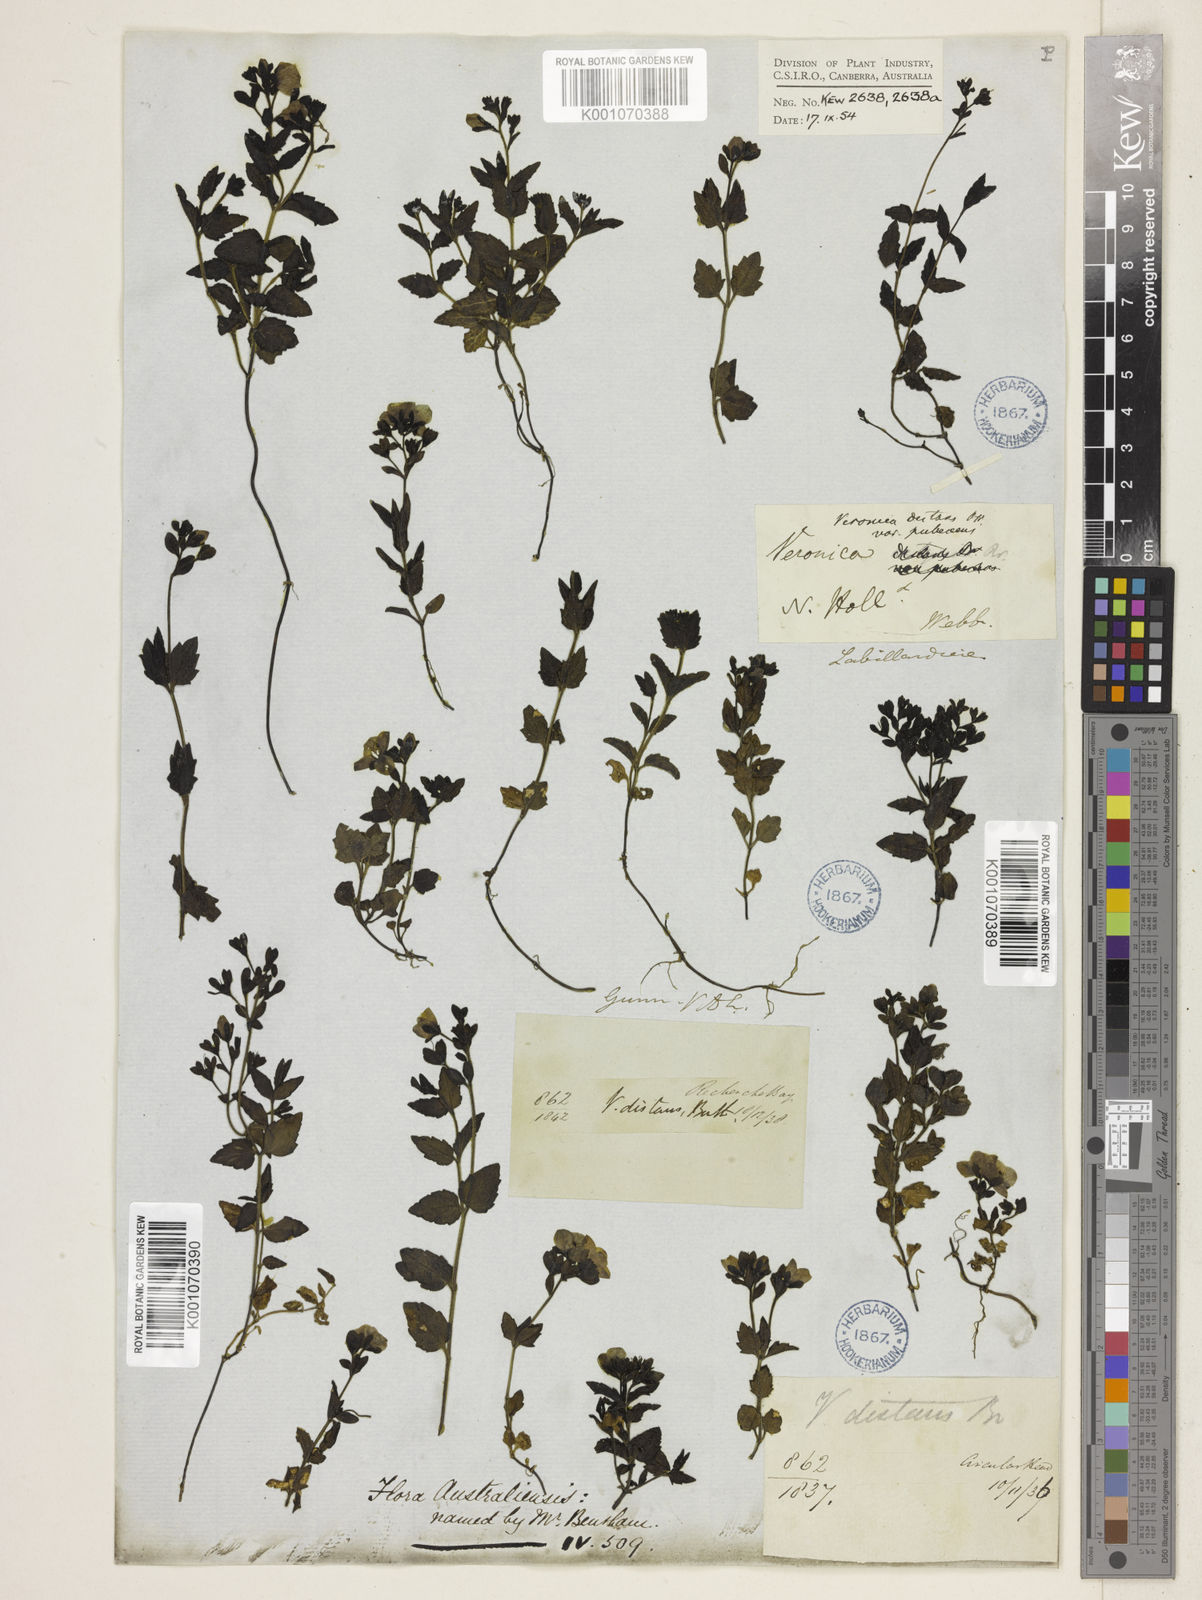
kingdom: Plantae
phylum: Tracheophyta
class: Magnoliopsida
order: Lamiales
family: Plantaginaceae
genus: Veronica
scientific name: Veronica distans
